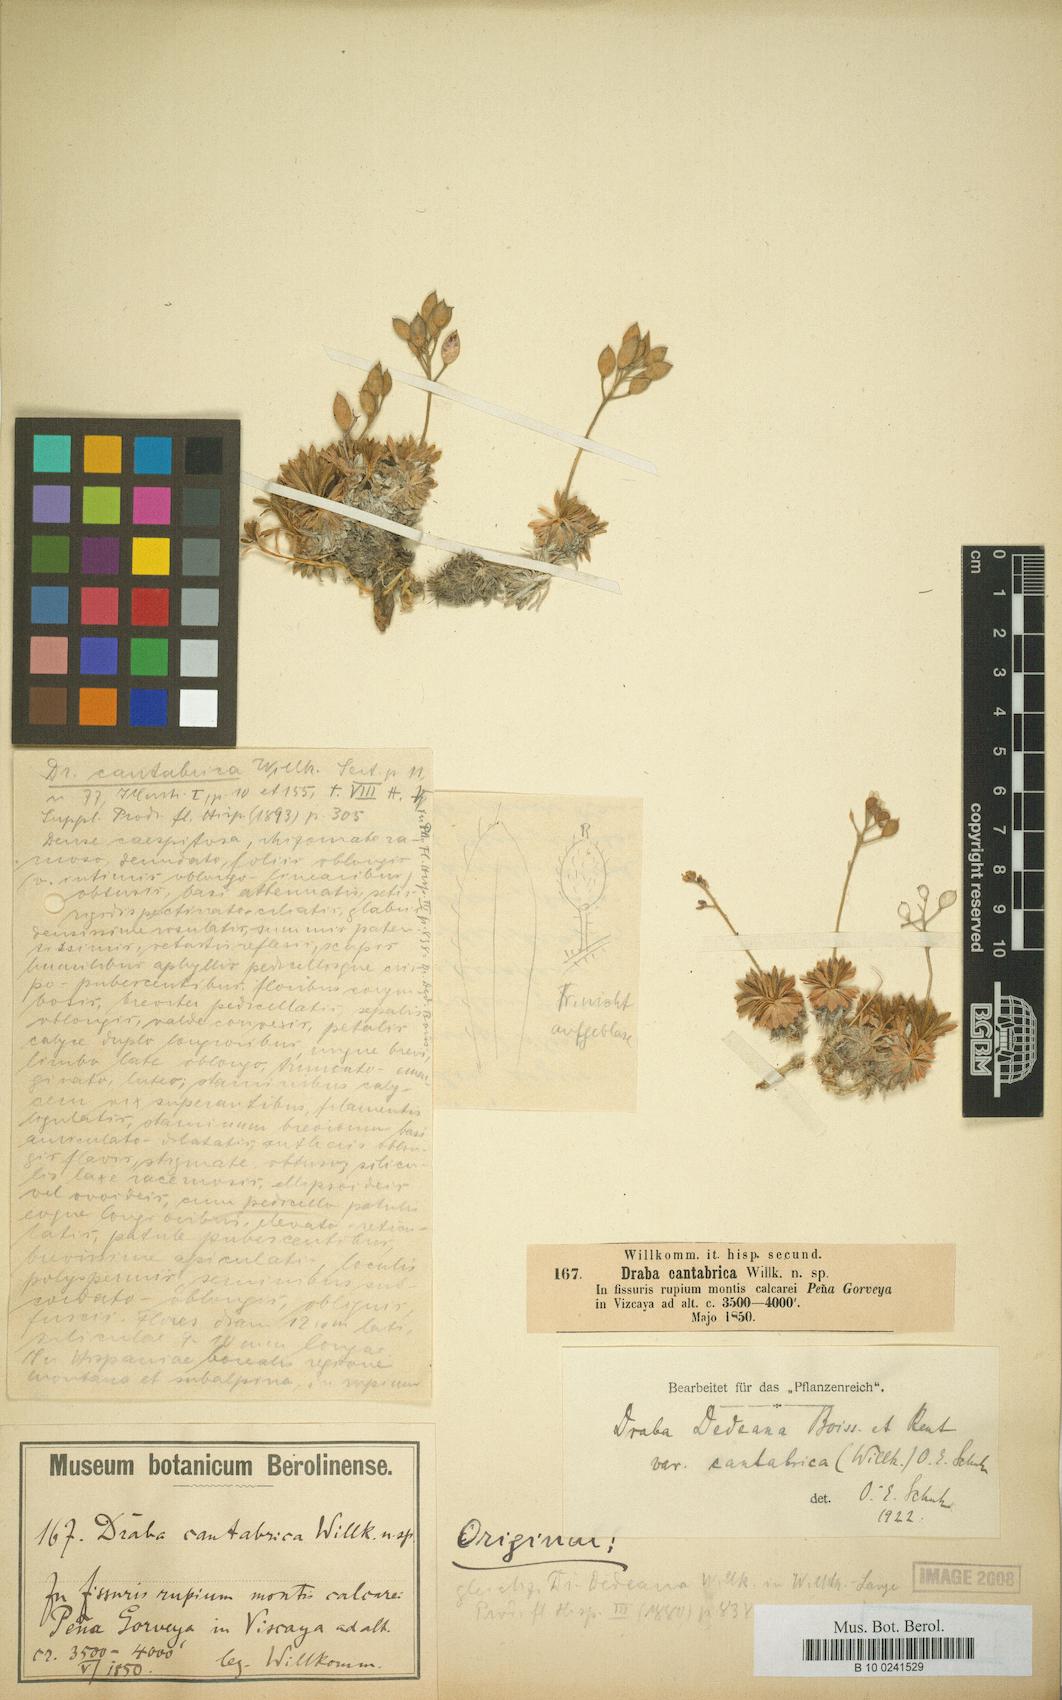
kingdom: Plantae
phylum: Tracheophyta
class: Magnoliopsida
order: Brassicales
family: Brassicaceae
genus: Draba
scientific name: Draba dedeana
